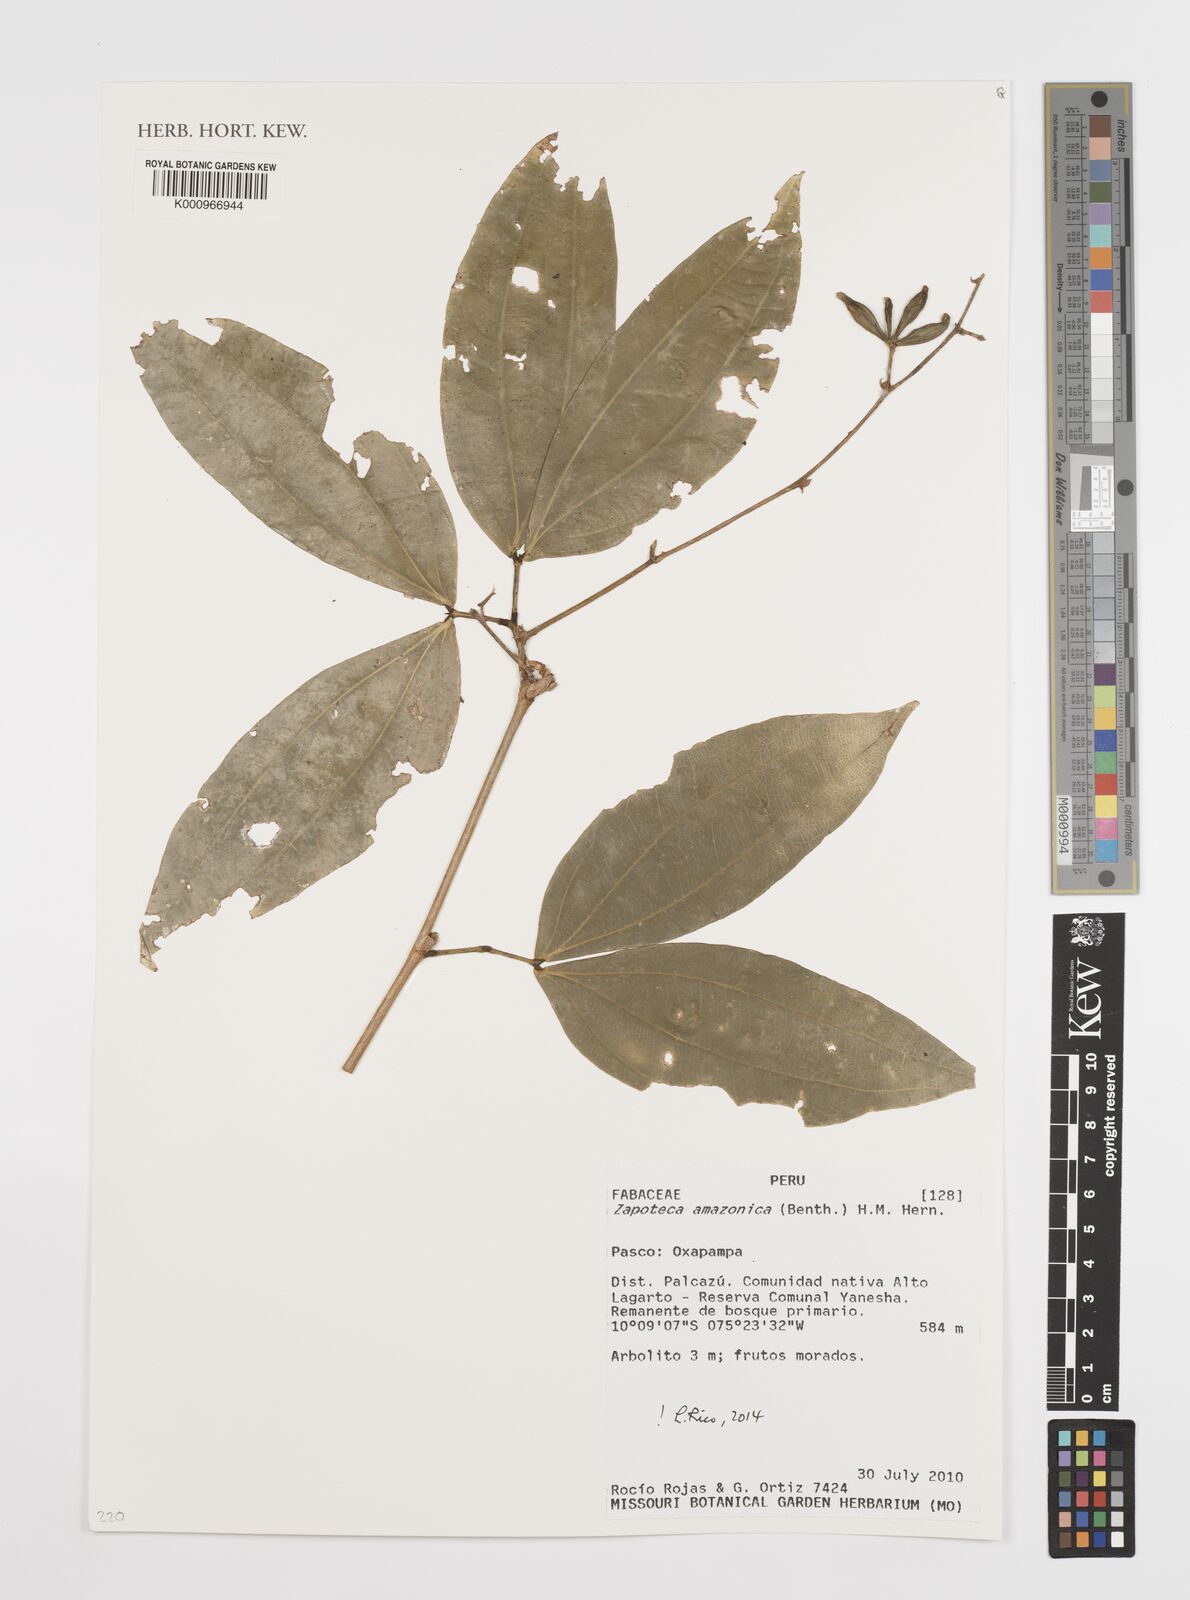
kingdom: Plantae
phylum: Tracheophyta
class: Magnoliopsida
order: Fabales
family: Fabaceae
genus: Zapoteca
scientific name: Zapoteca amazonica
